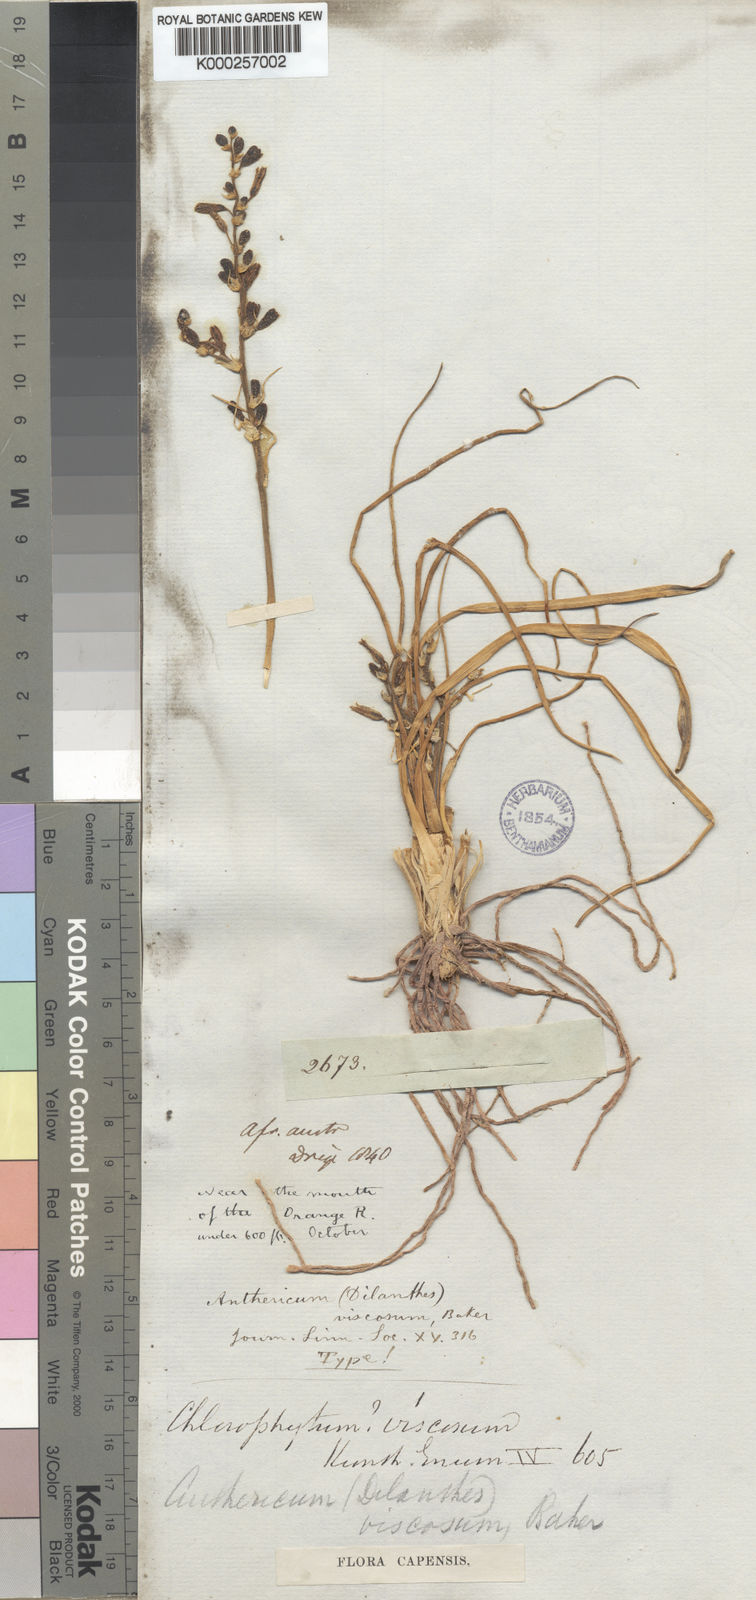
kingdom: Plantae
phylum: Tracheophyta
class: Liliopsida
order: Asparagales
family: Asparagaceae
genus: Chlorophytum
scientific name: Chlorophytum viscosum
